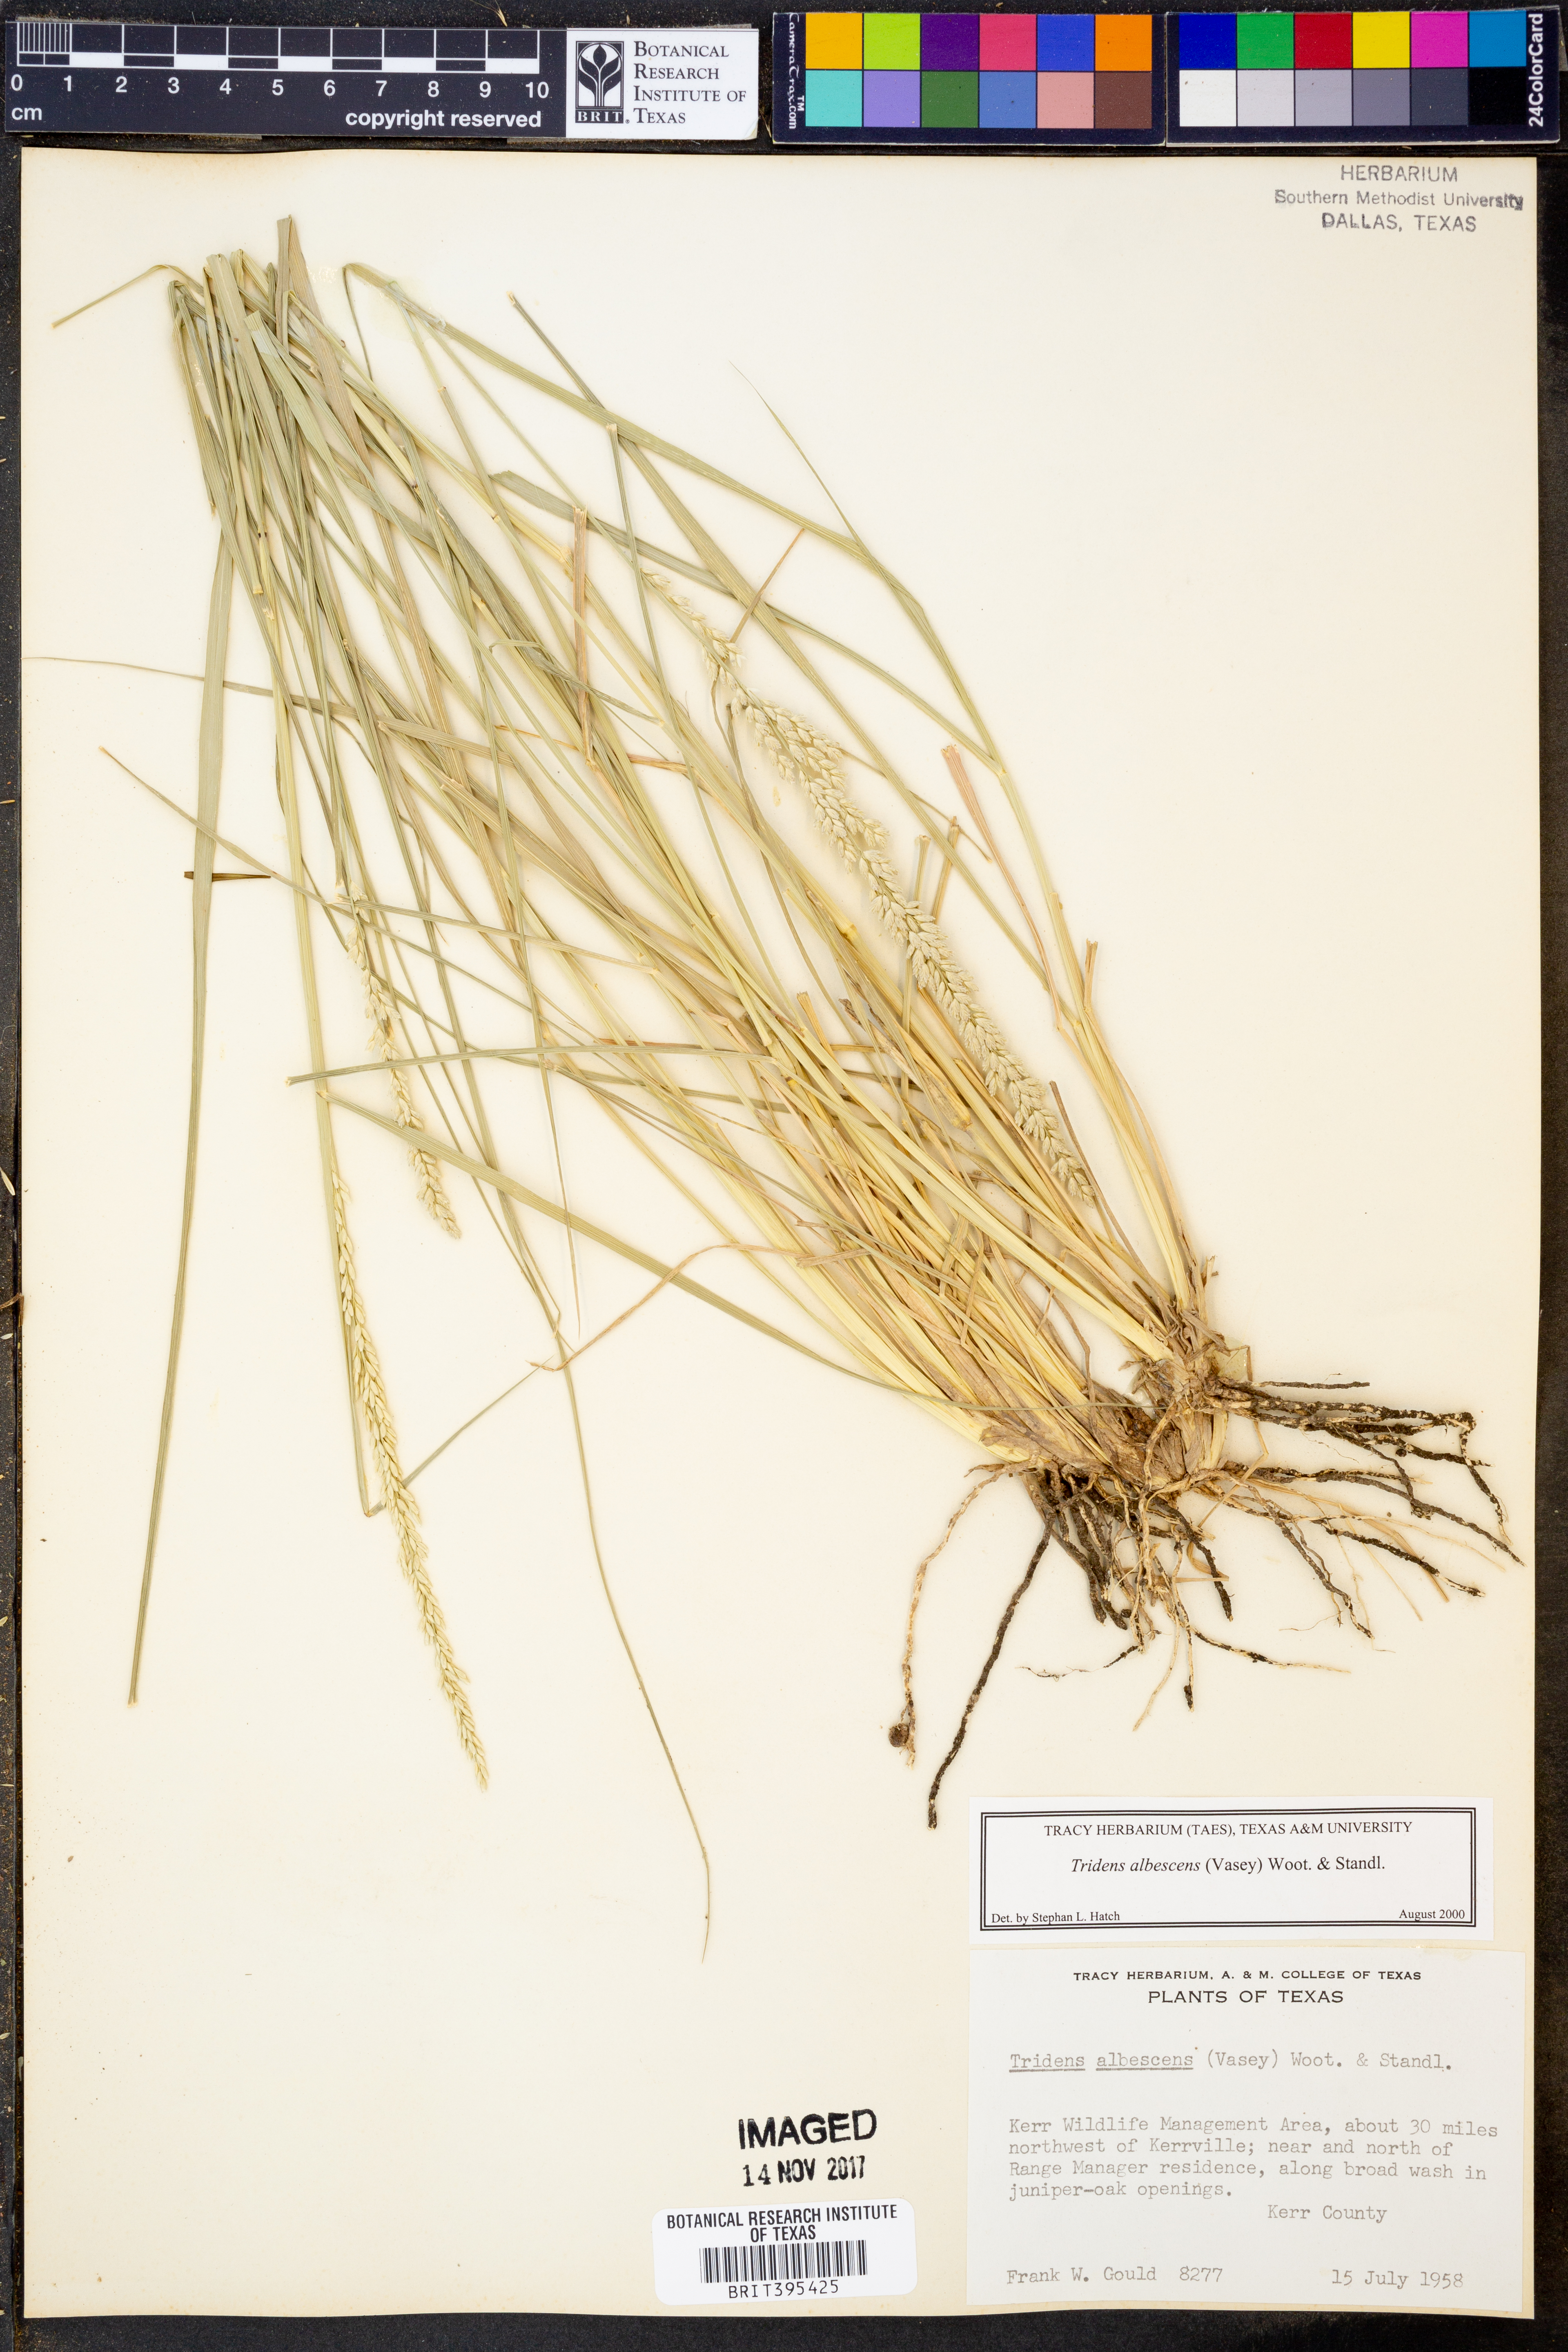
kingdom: Plantae
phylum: Tracheophyta
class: Liliopsida
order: Poales
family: Poaceae
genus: Tridens
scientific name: Tridens albescens
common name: White tridens
